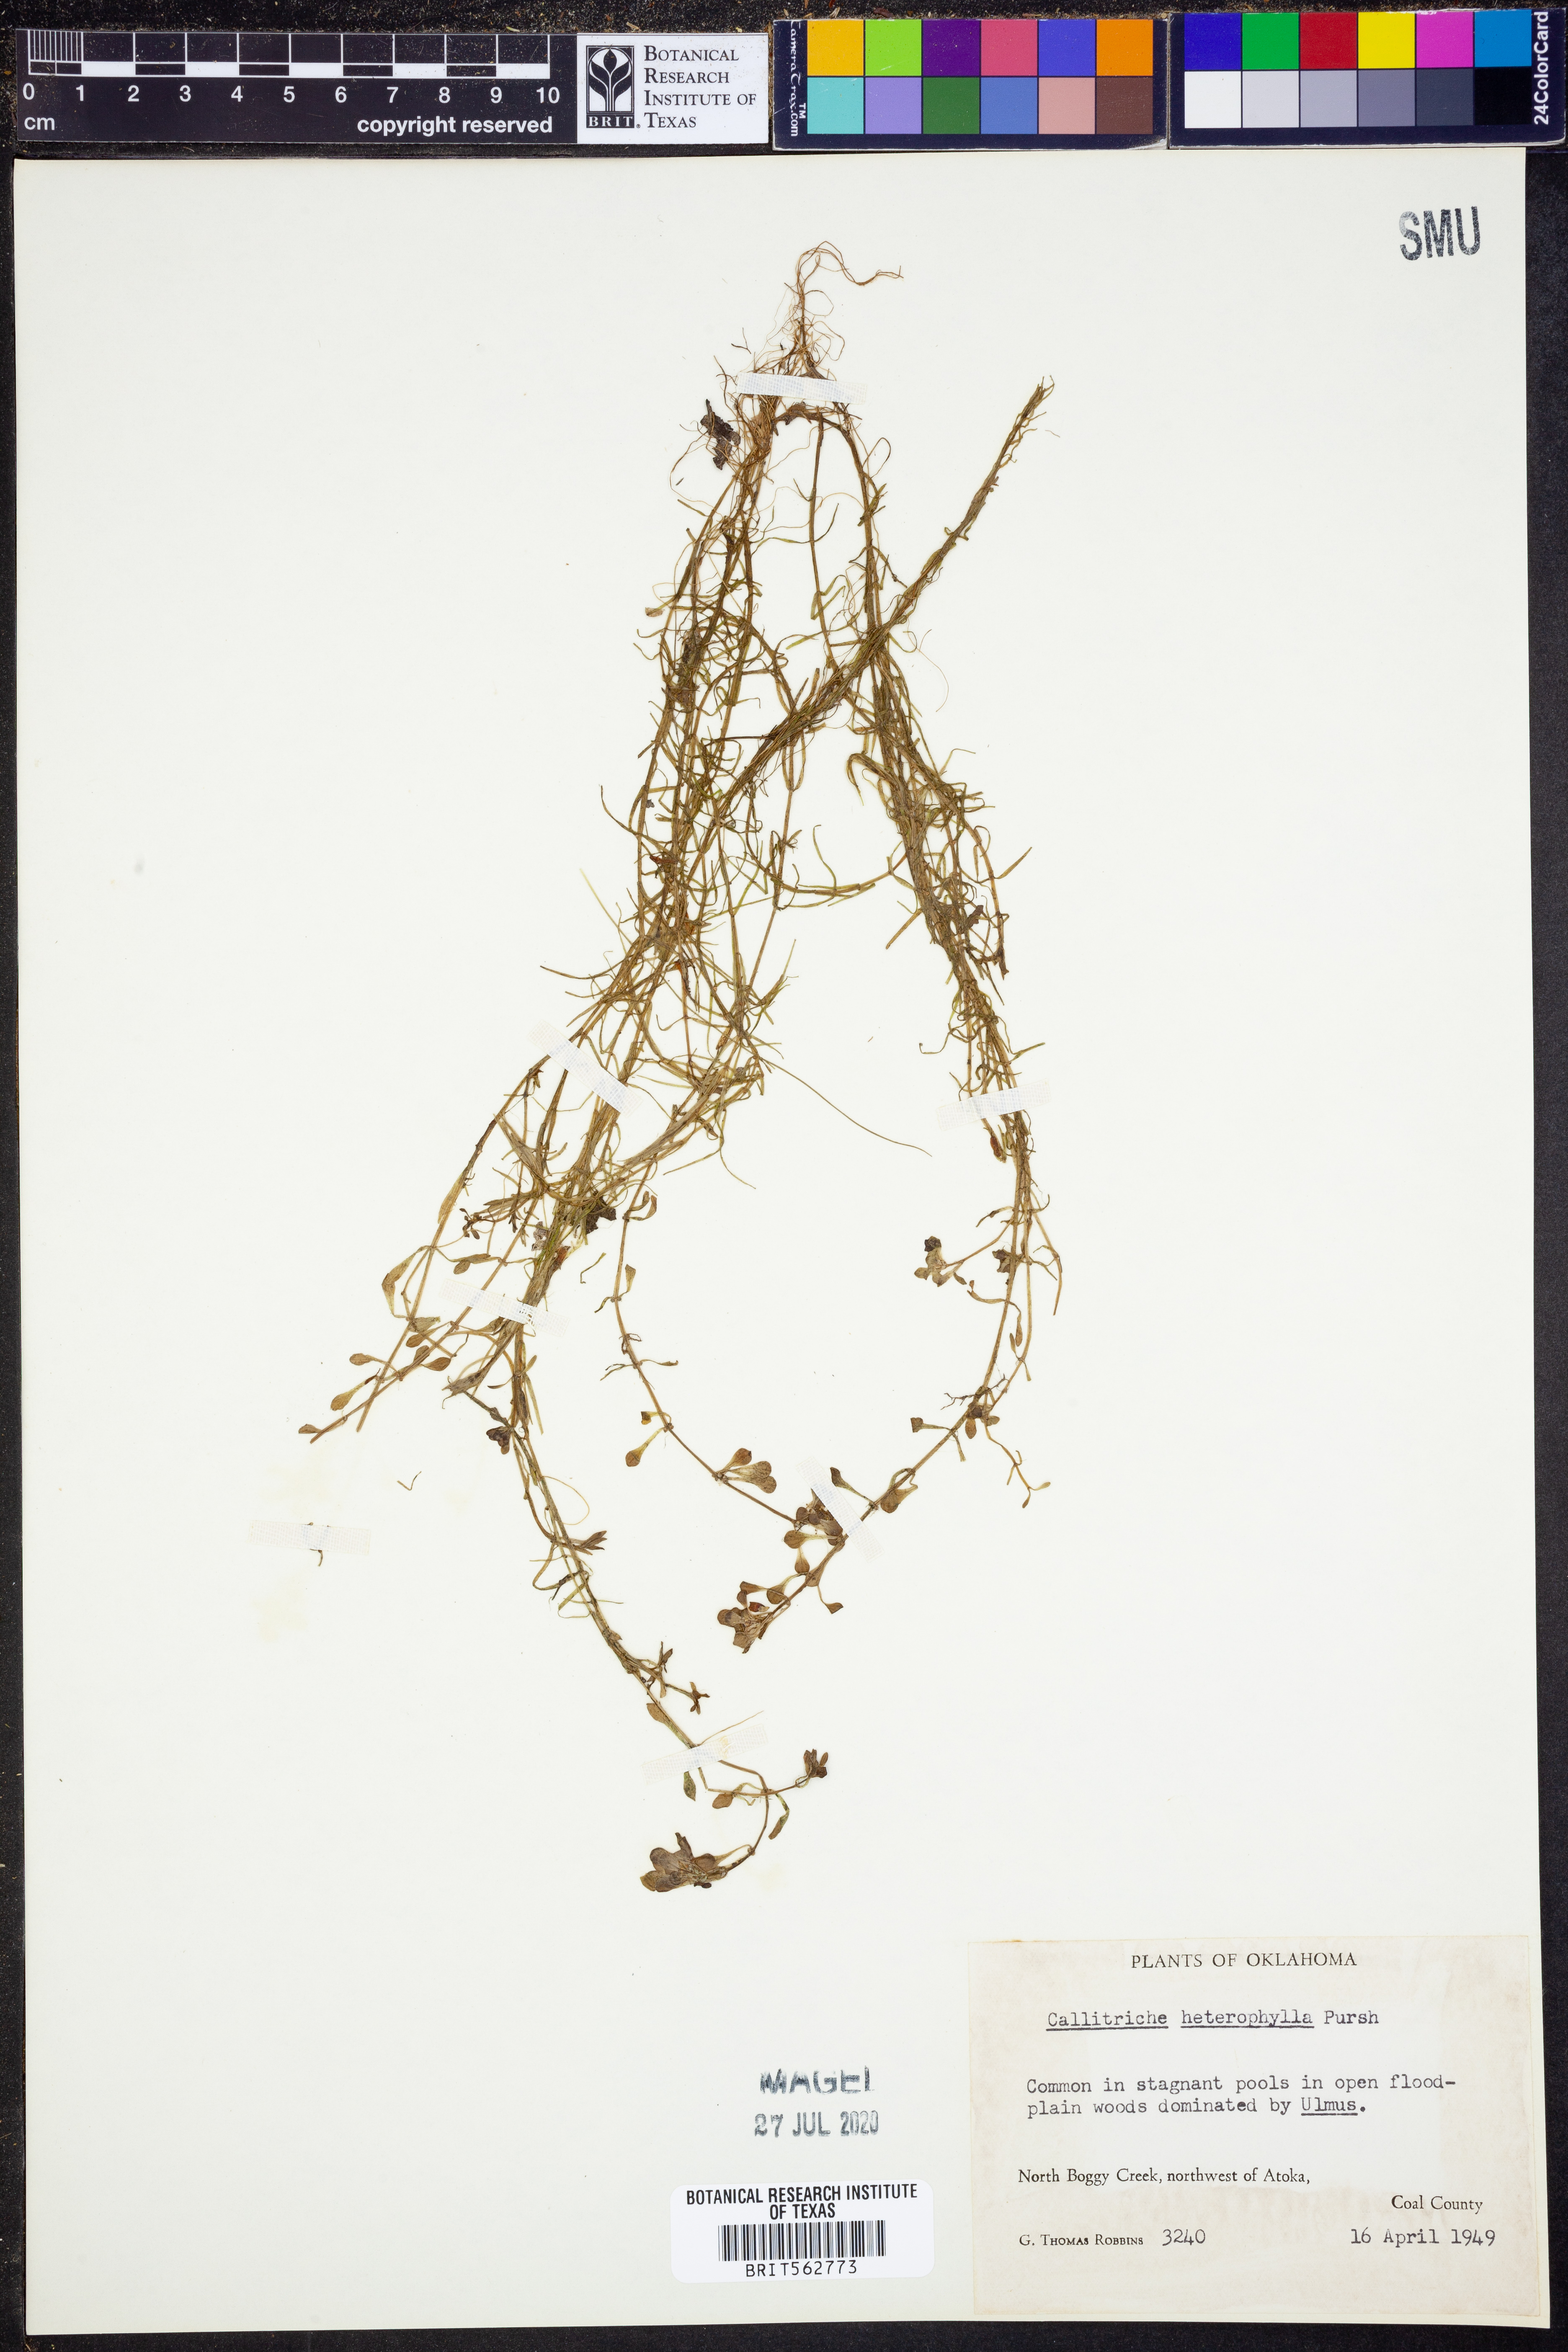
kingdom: Plantae
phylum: Tracheophyta
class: Magnoliopsida
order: Lamiales
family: Plantaginaceae
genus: Callitriche
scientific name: Callitriche heterophylla
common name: Two-headed water-starwort
